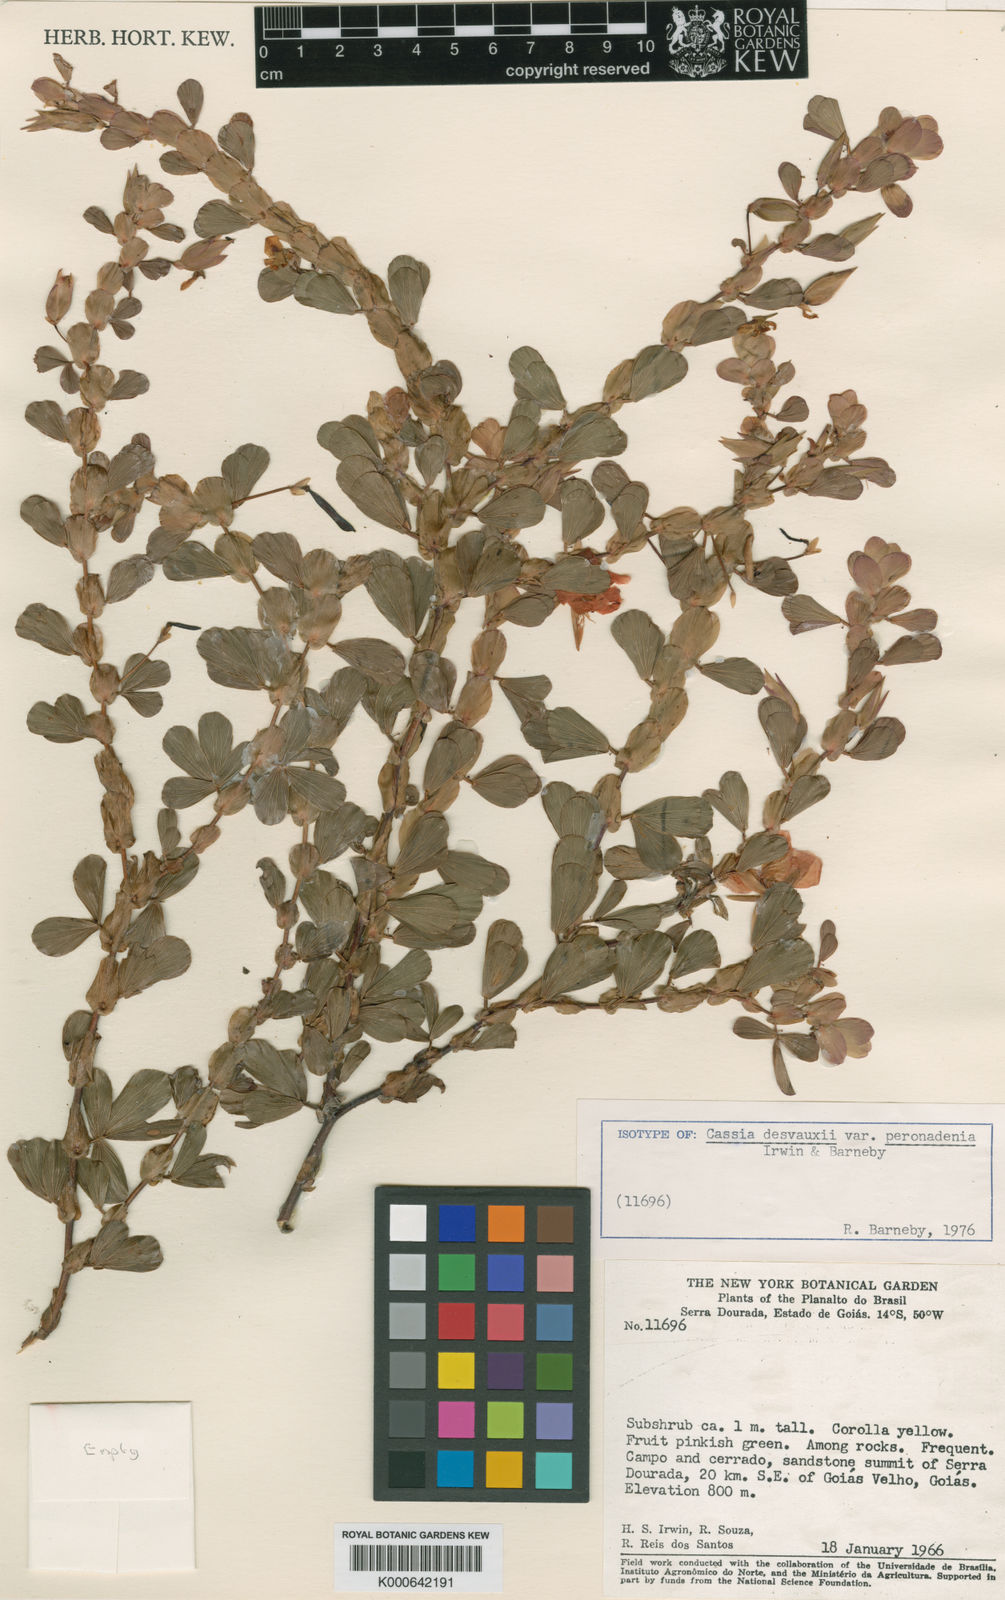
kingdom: Plantae
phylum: Tracheophyta
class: Magnoliopsida
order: Fabales
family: Fabaceae
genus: Chamaecrista
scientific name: Chamaecrista desvauxii
